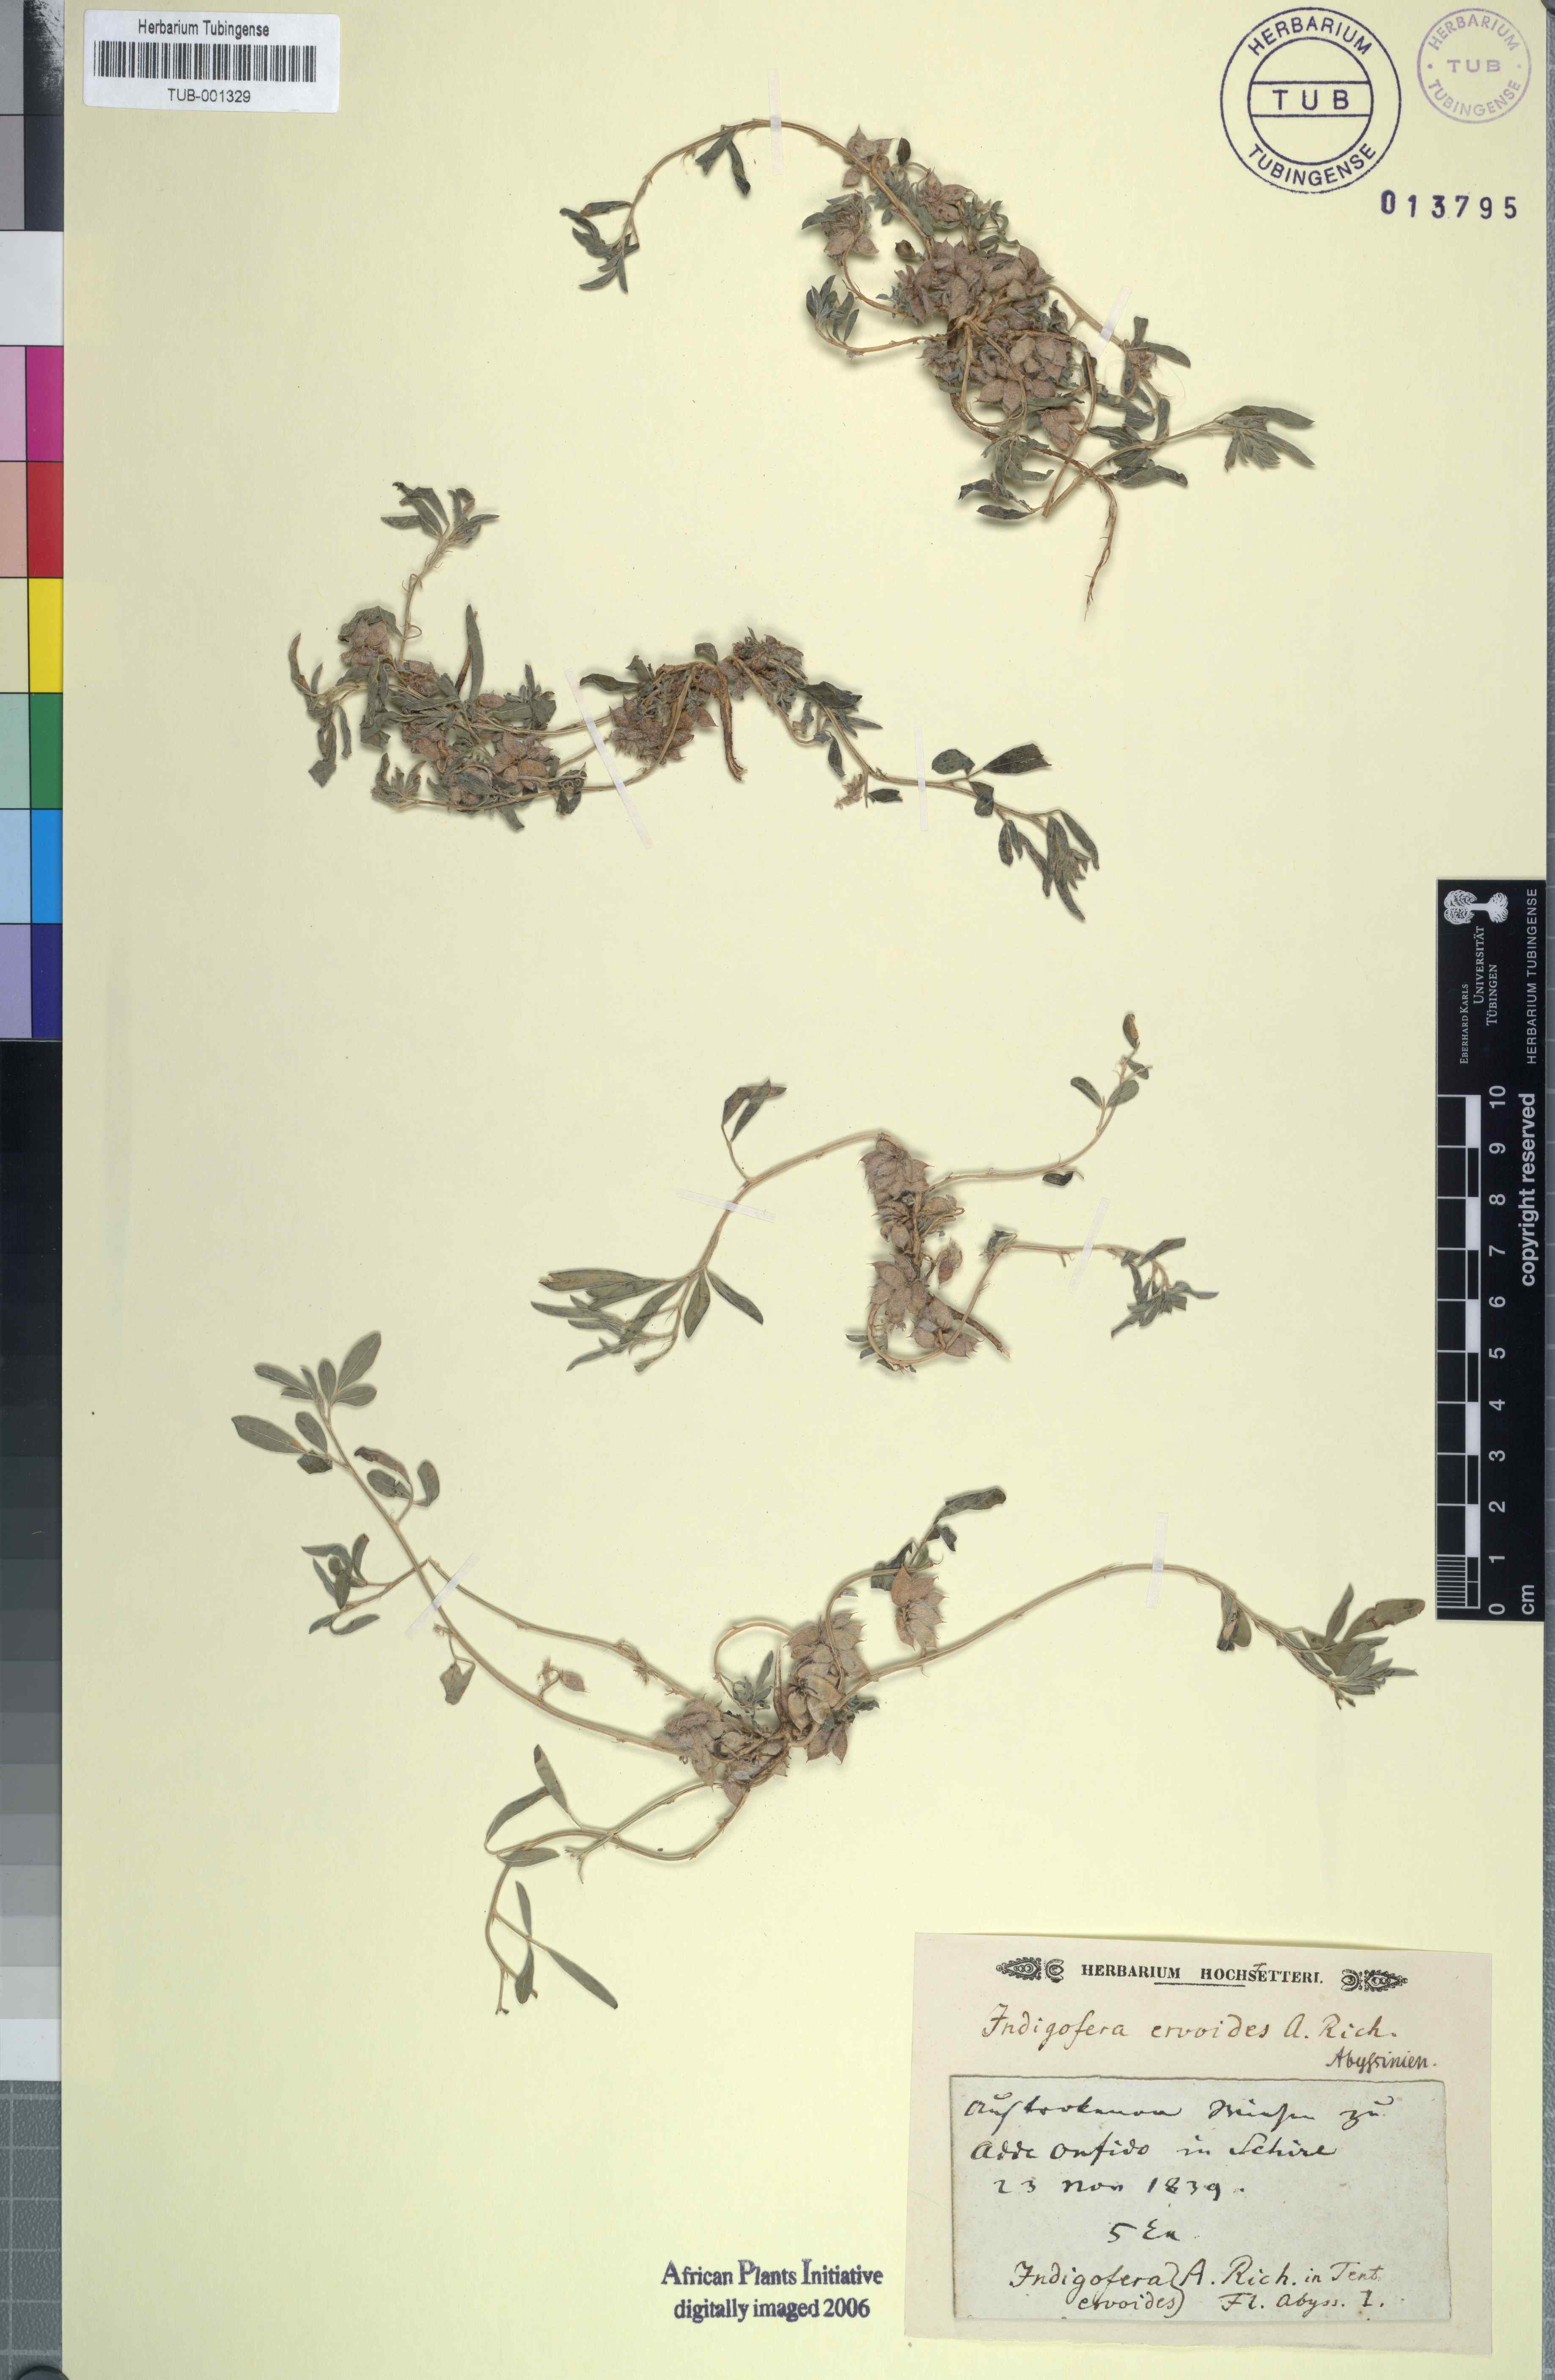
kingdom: Plantae
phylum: Tracheophyta
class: Magnoliopsida
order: Fabales
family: Fabaceae
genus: Indigofera
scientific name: Indigofera chirensis
